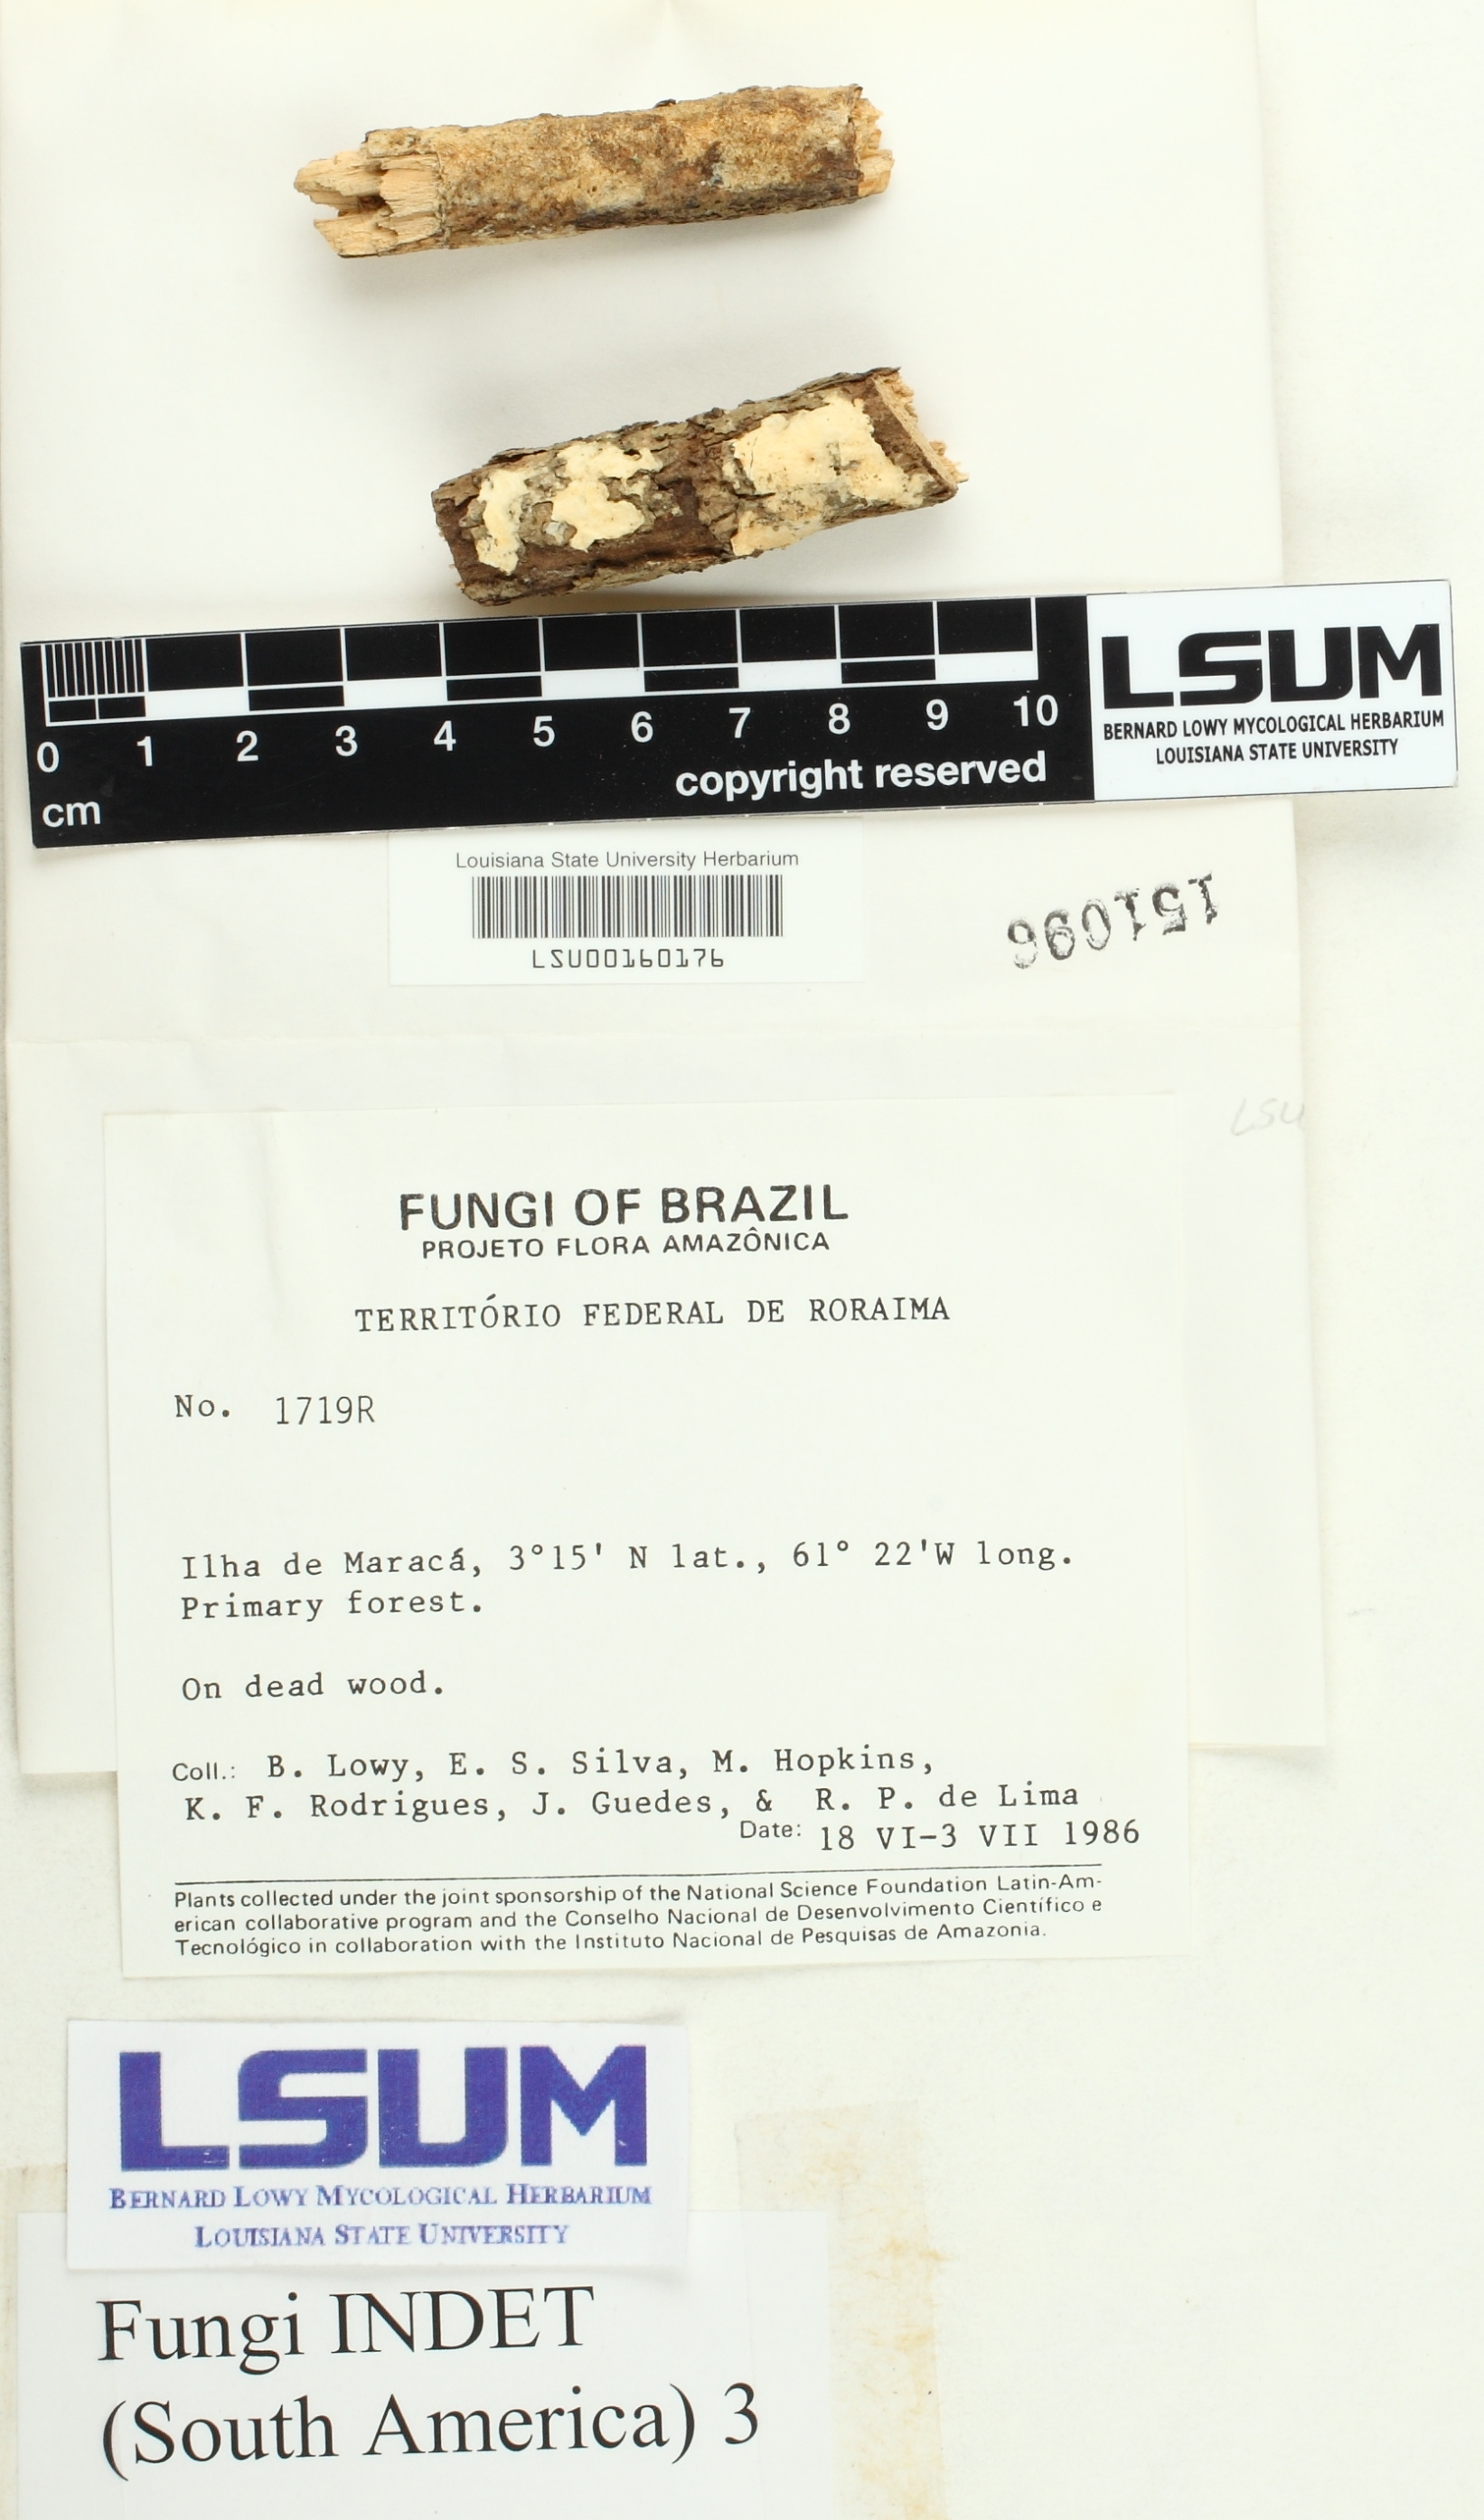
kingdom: Fungi
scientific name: Fungi
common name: Fungi
